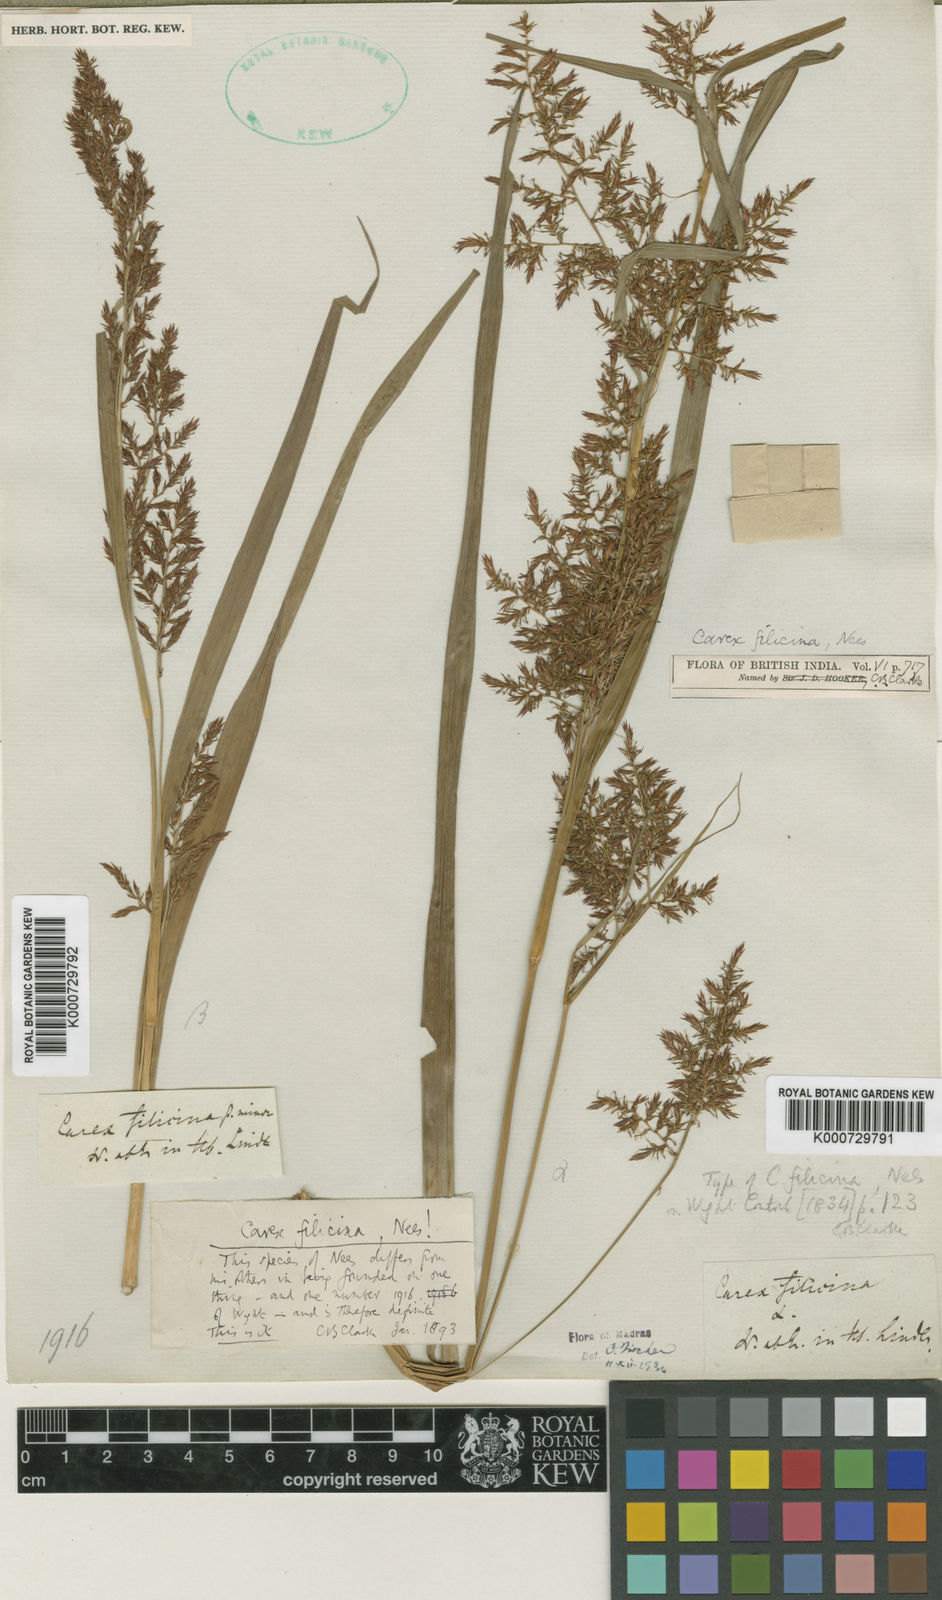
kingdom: Plantae
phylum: Tracheophyta
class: Liliopsida
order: Poales
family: Cyperaceae
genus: Carex
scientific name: Carex filicina
